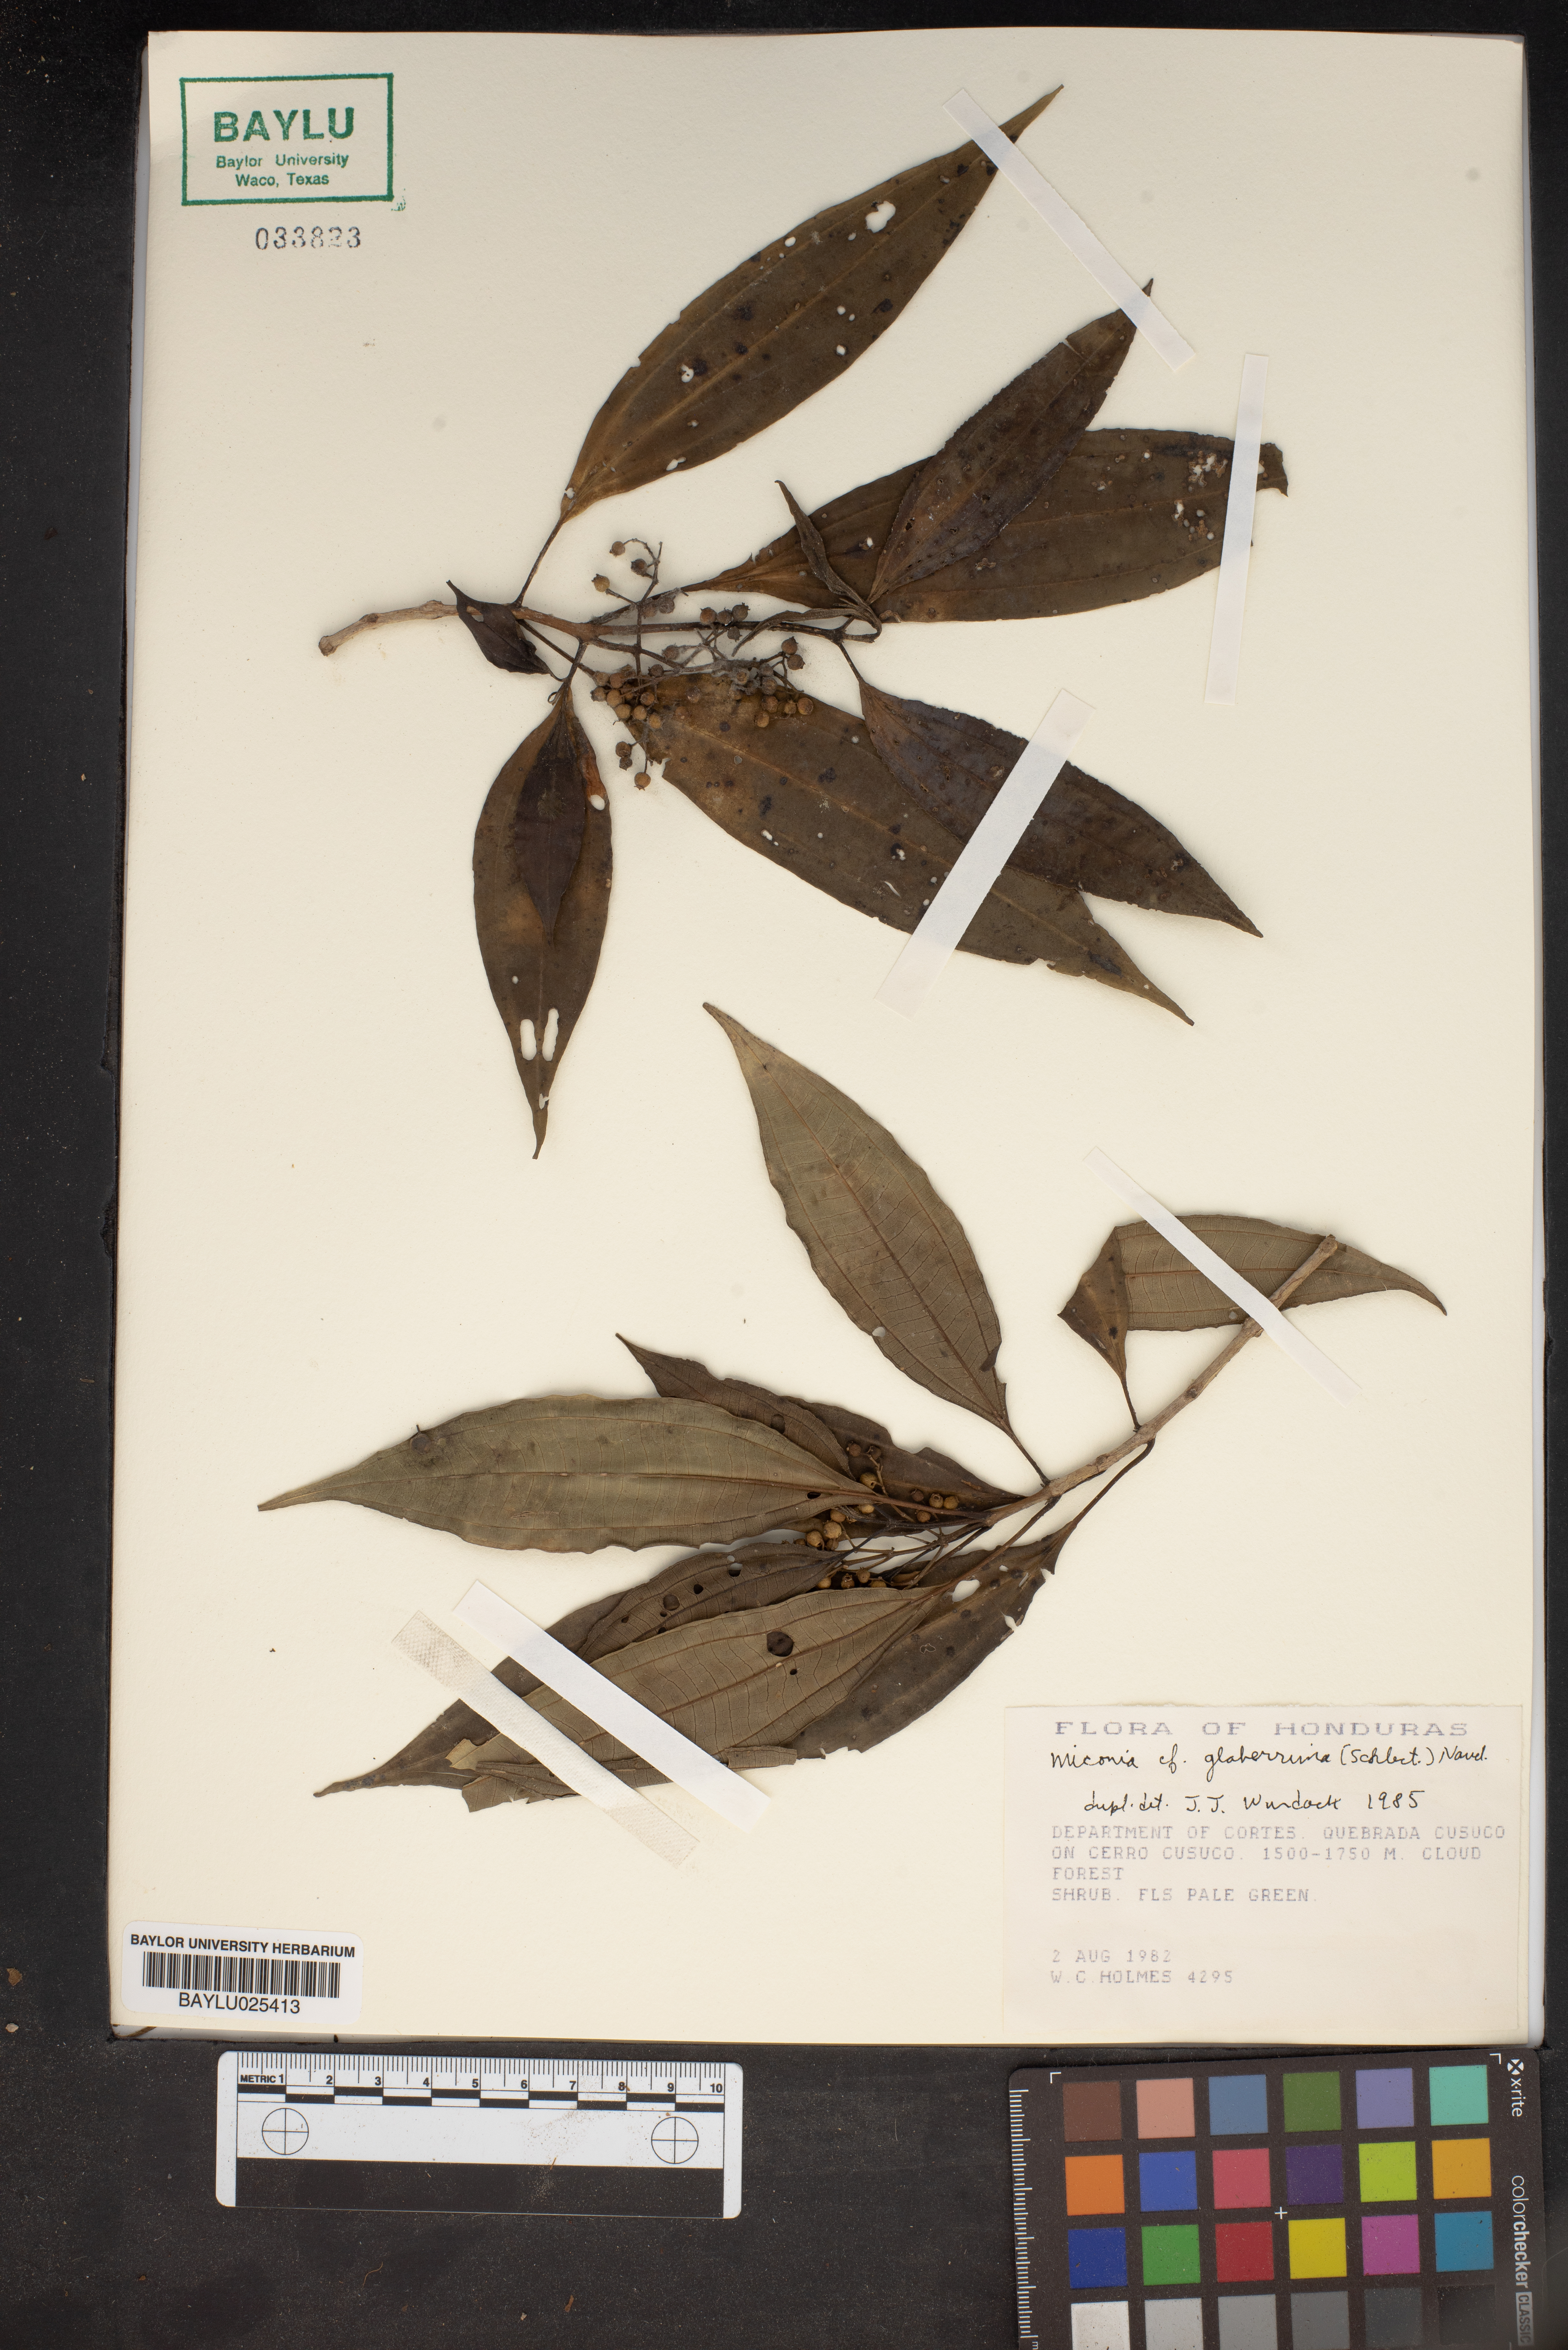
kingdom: Plantae
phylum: Tracheophyta
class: Magnoliopsida
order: Myrtales
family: Melastomataceae
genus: Miconia
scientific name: Miconia glaberrima
